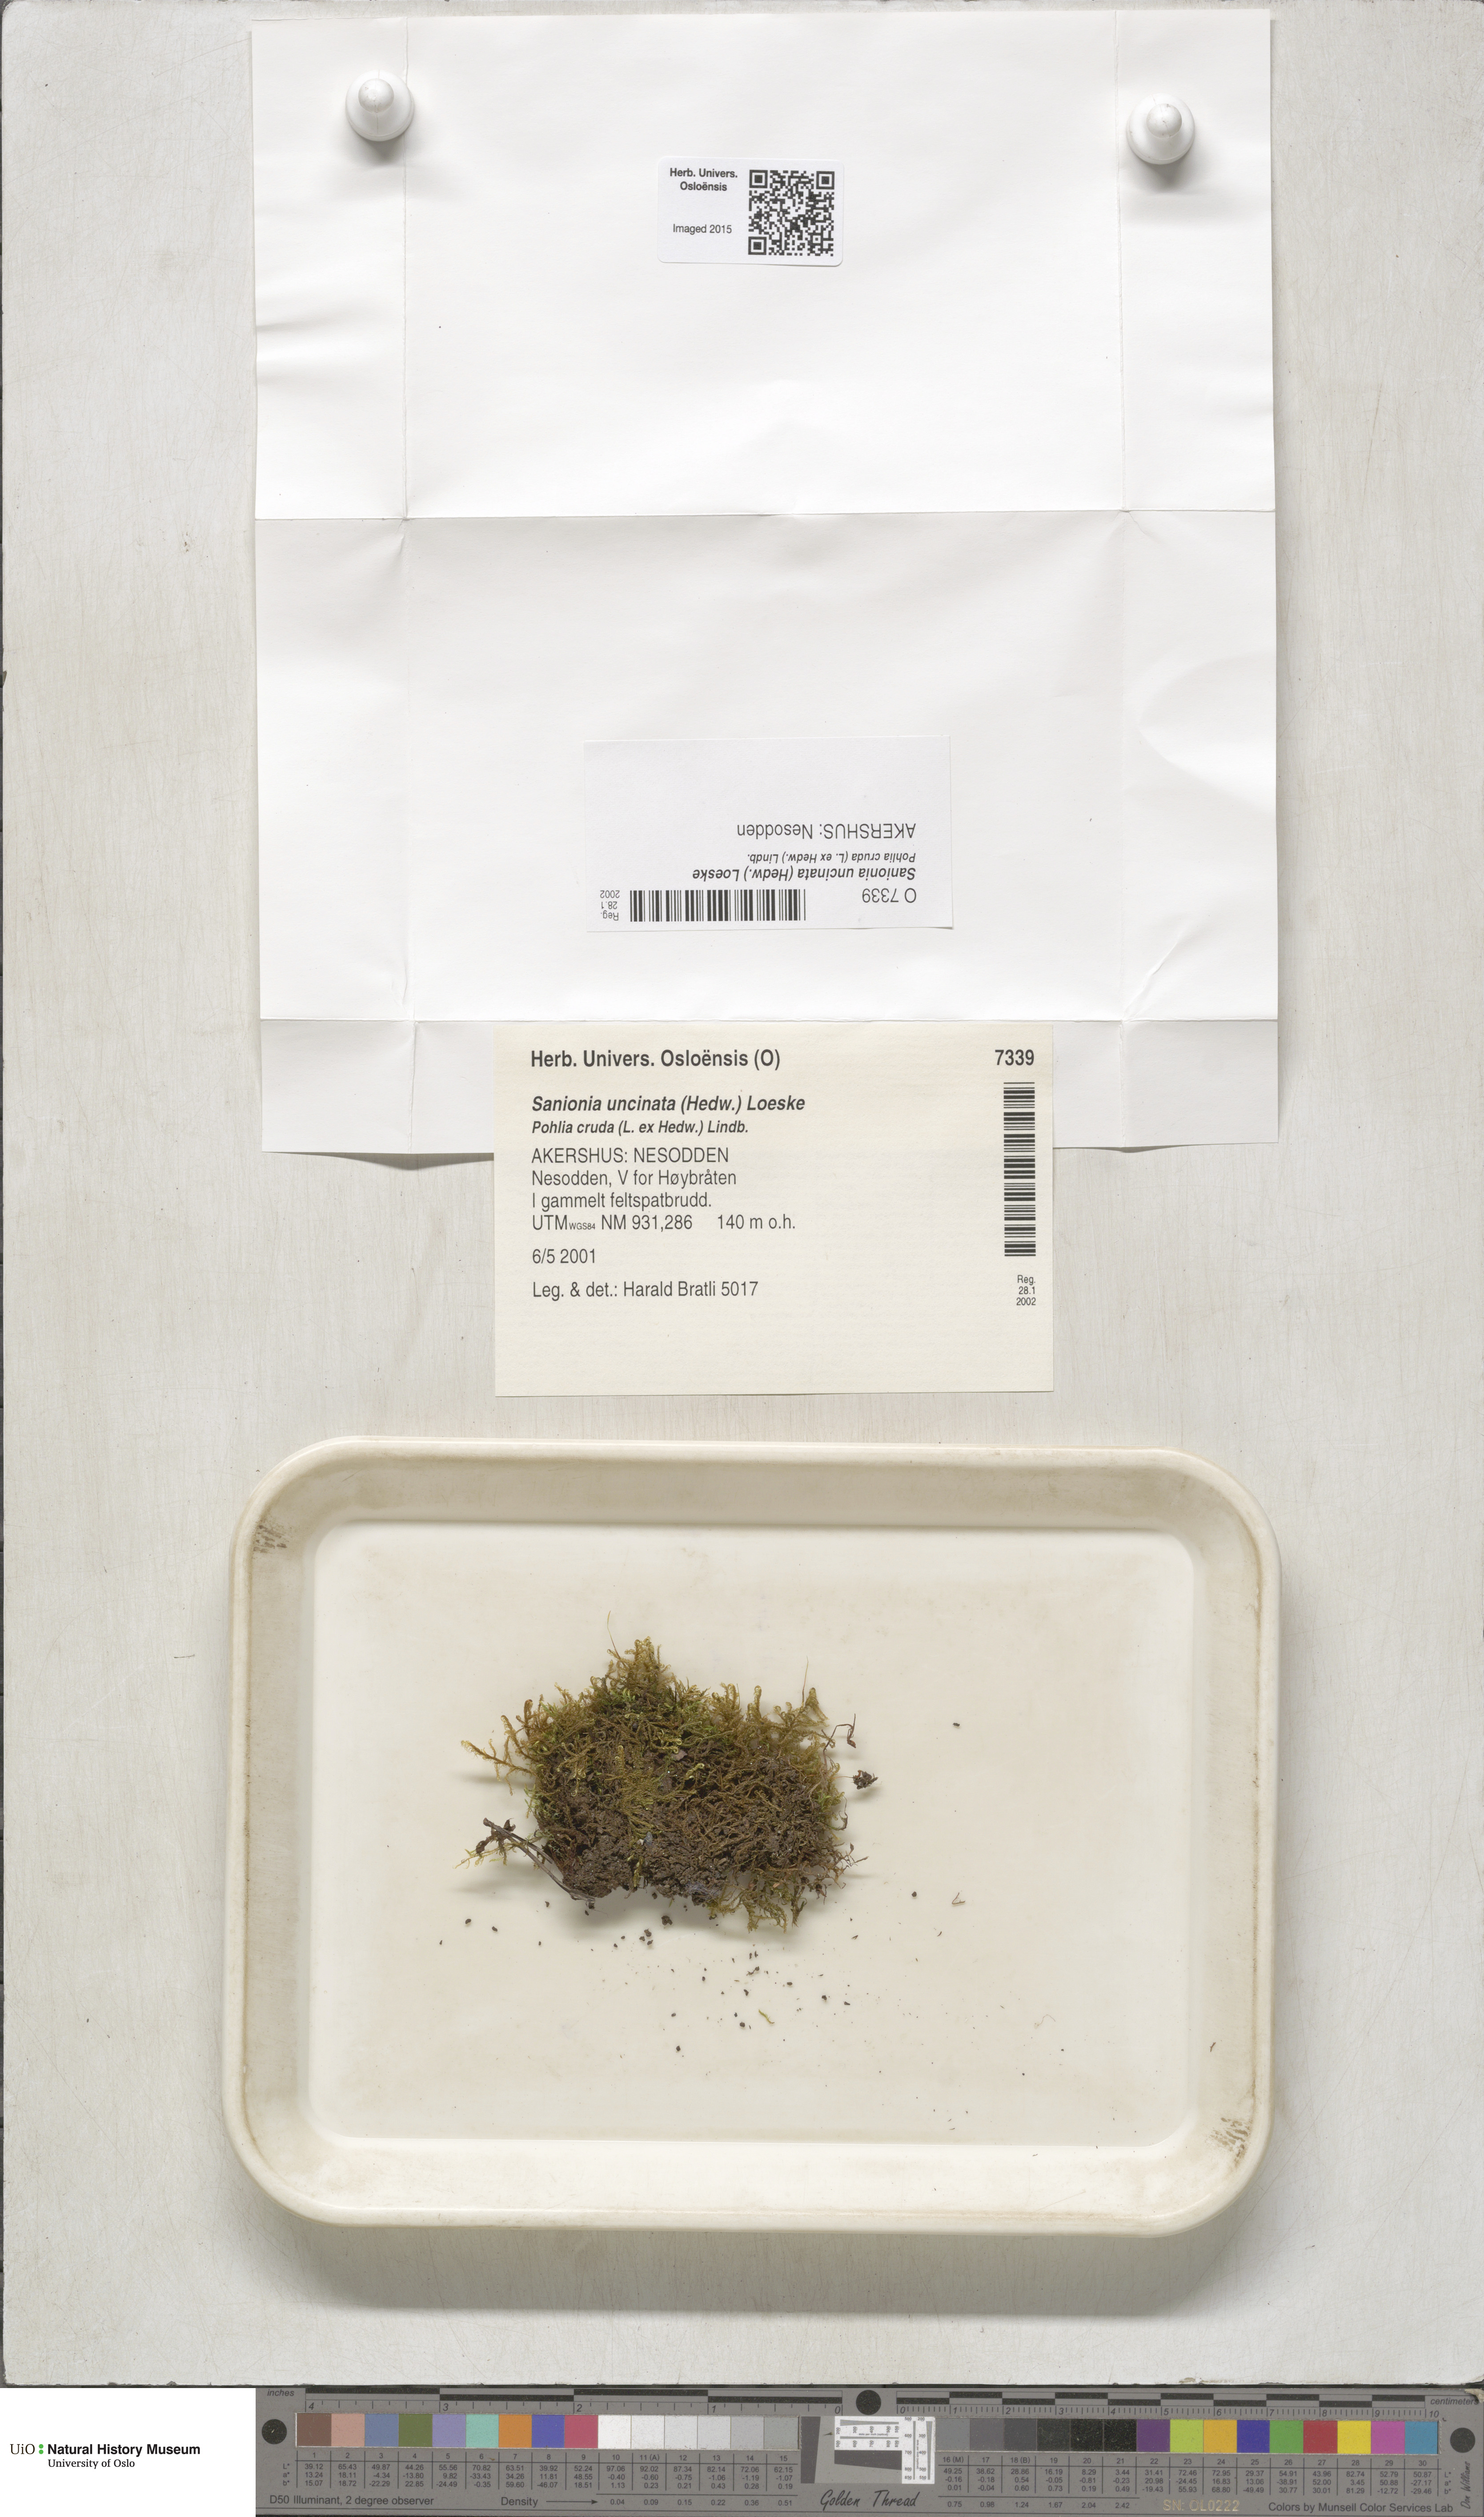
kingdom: Plantae
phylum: Bryophyta
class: Bryopsida
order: Hypnales
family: Scorpidiaceae
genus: Sanionia
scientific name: Sanionia uncinata
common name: Sickle moss
